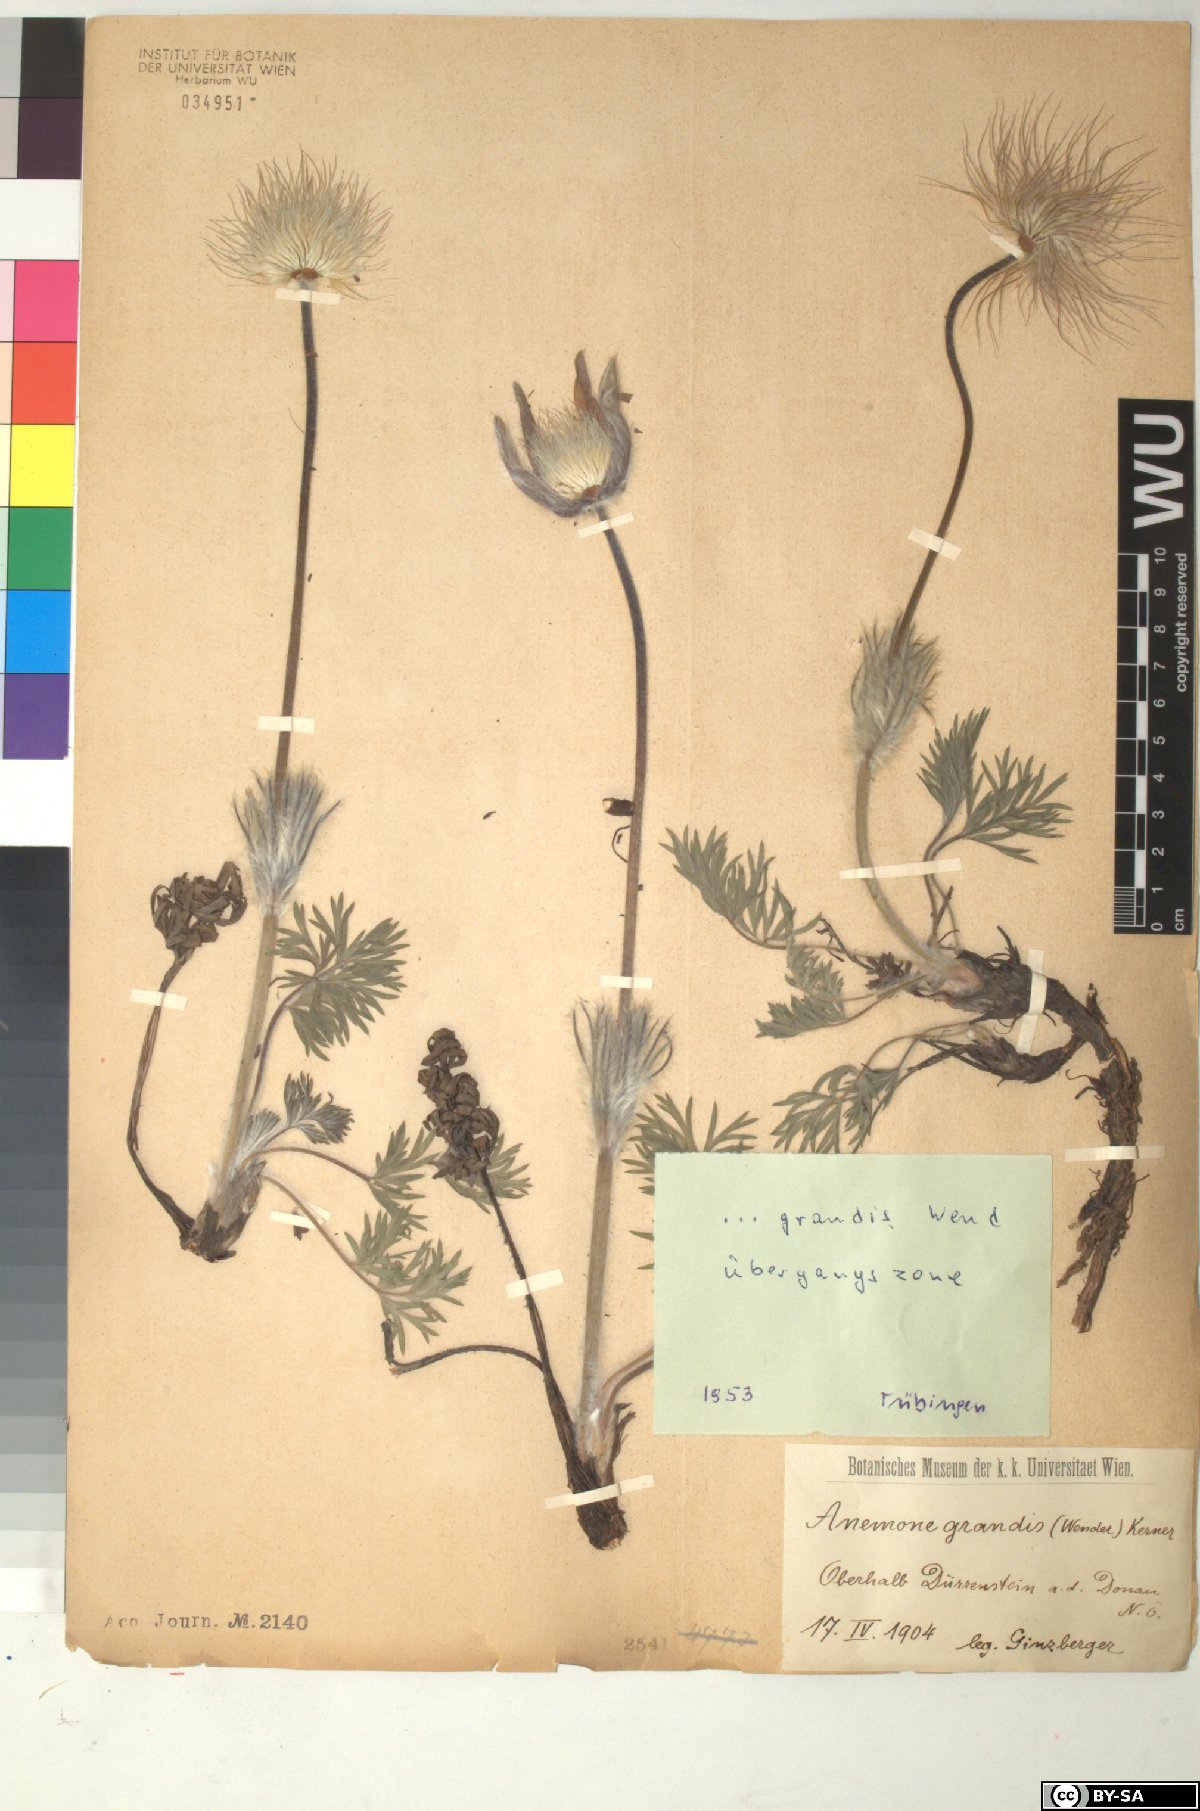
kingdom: Plantae
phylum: Tracheophyta
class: Magnoliopsida
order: Ranunculales
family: Ranunculaceae
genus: Pulsatilla
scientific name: Pulsatilla grandis
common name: Greater pasque flower
